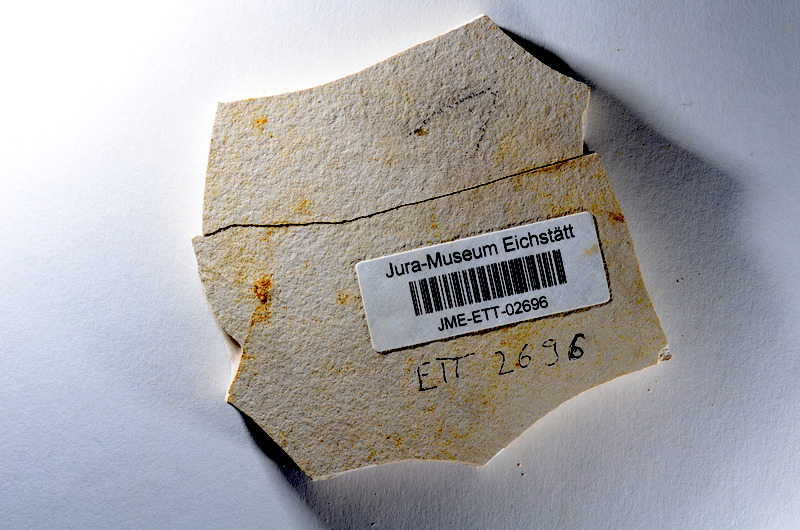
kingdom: Animalia
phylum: Chordata
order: Salmoniformes
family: Orthogonikleithridae
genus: Orthogonikleithrus
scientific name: Orthogonikleithrus hoelli
